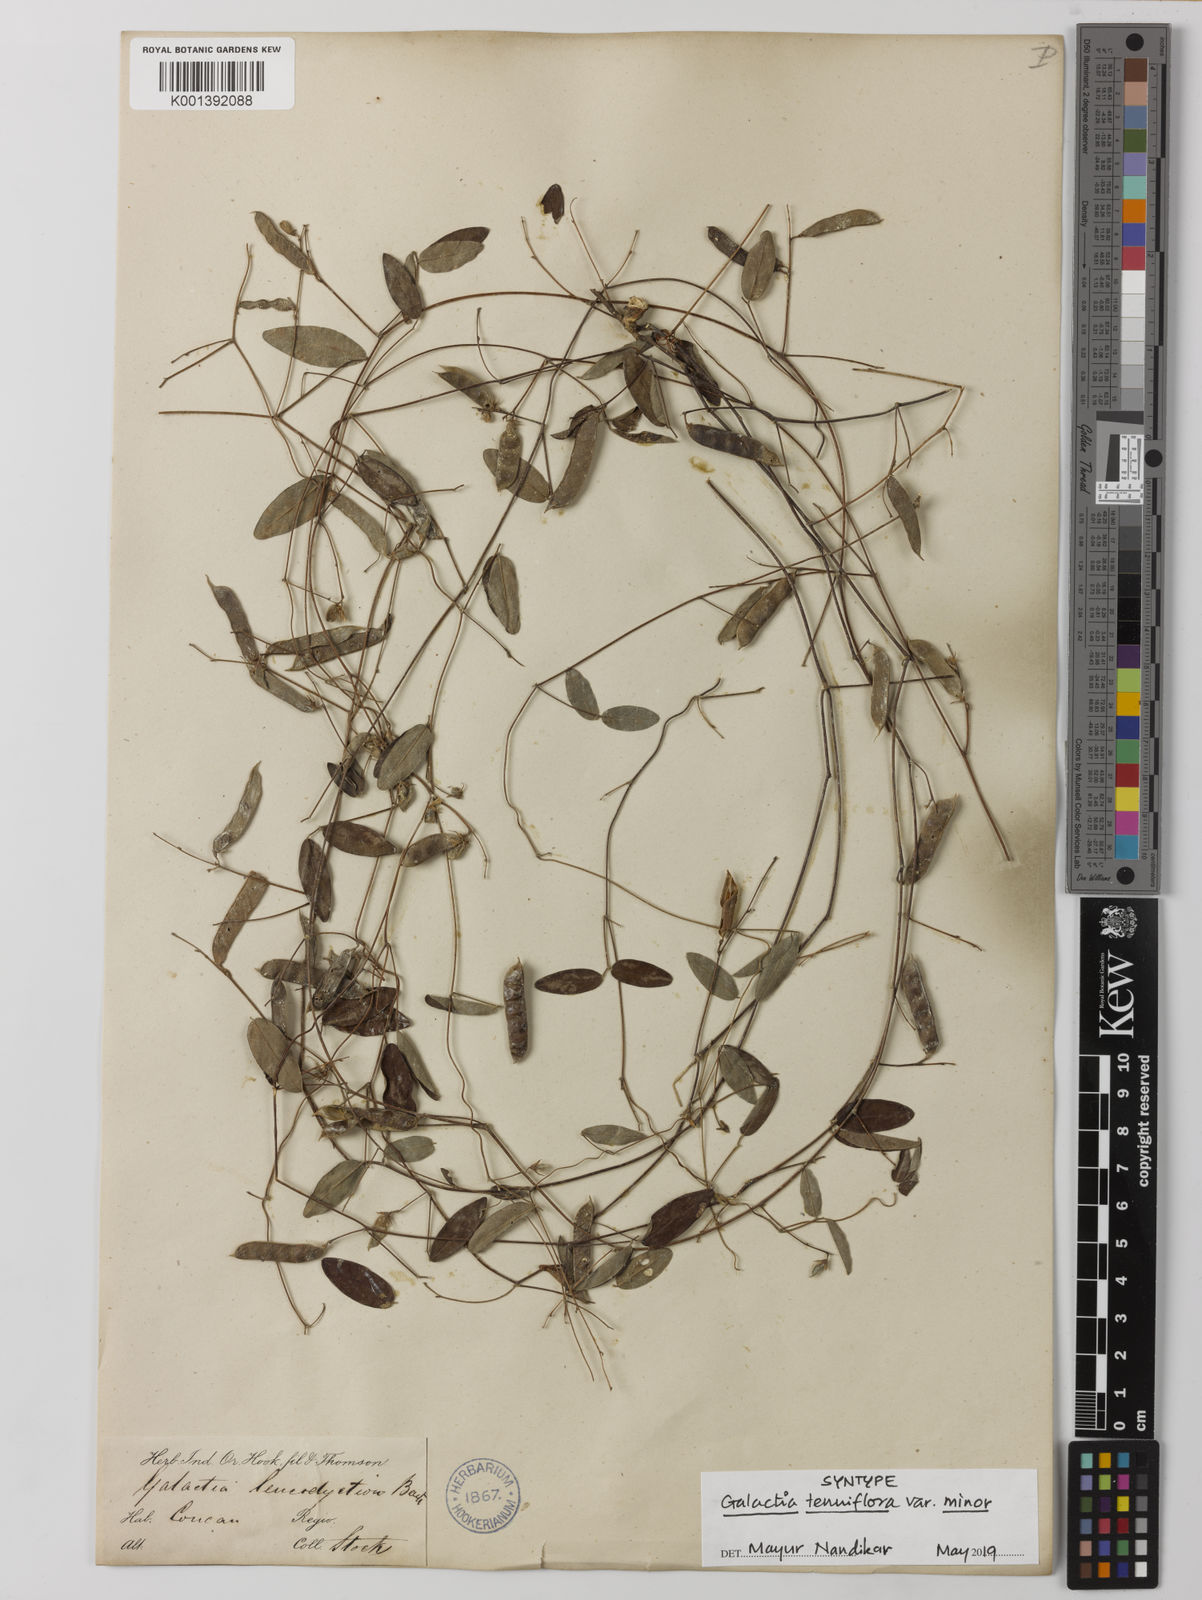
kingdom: Plantae
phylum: Tracheophyta
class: Magnoliopsida
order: Fabales
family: Fabaceae
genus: Galactia
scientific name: Galactia
